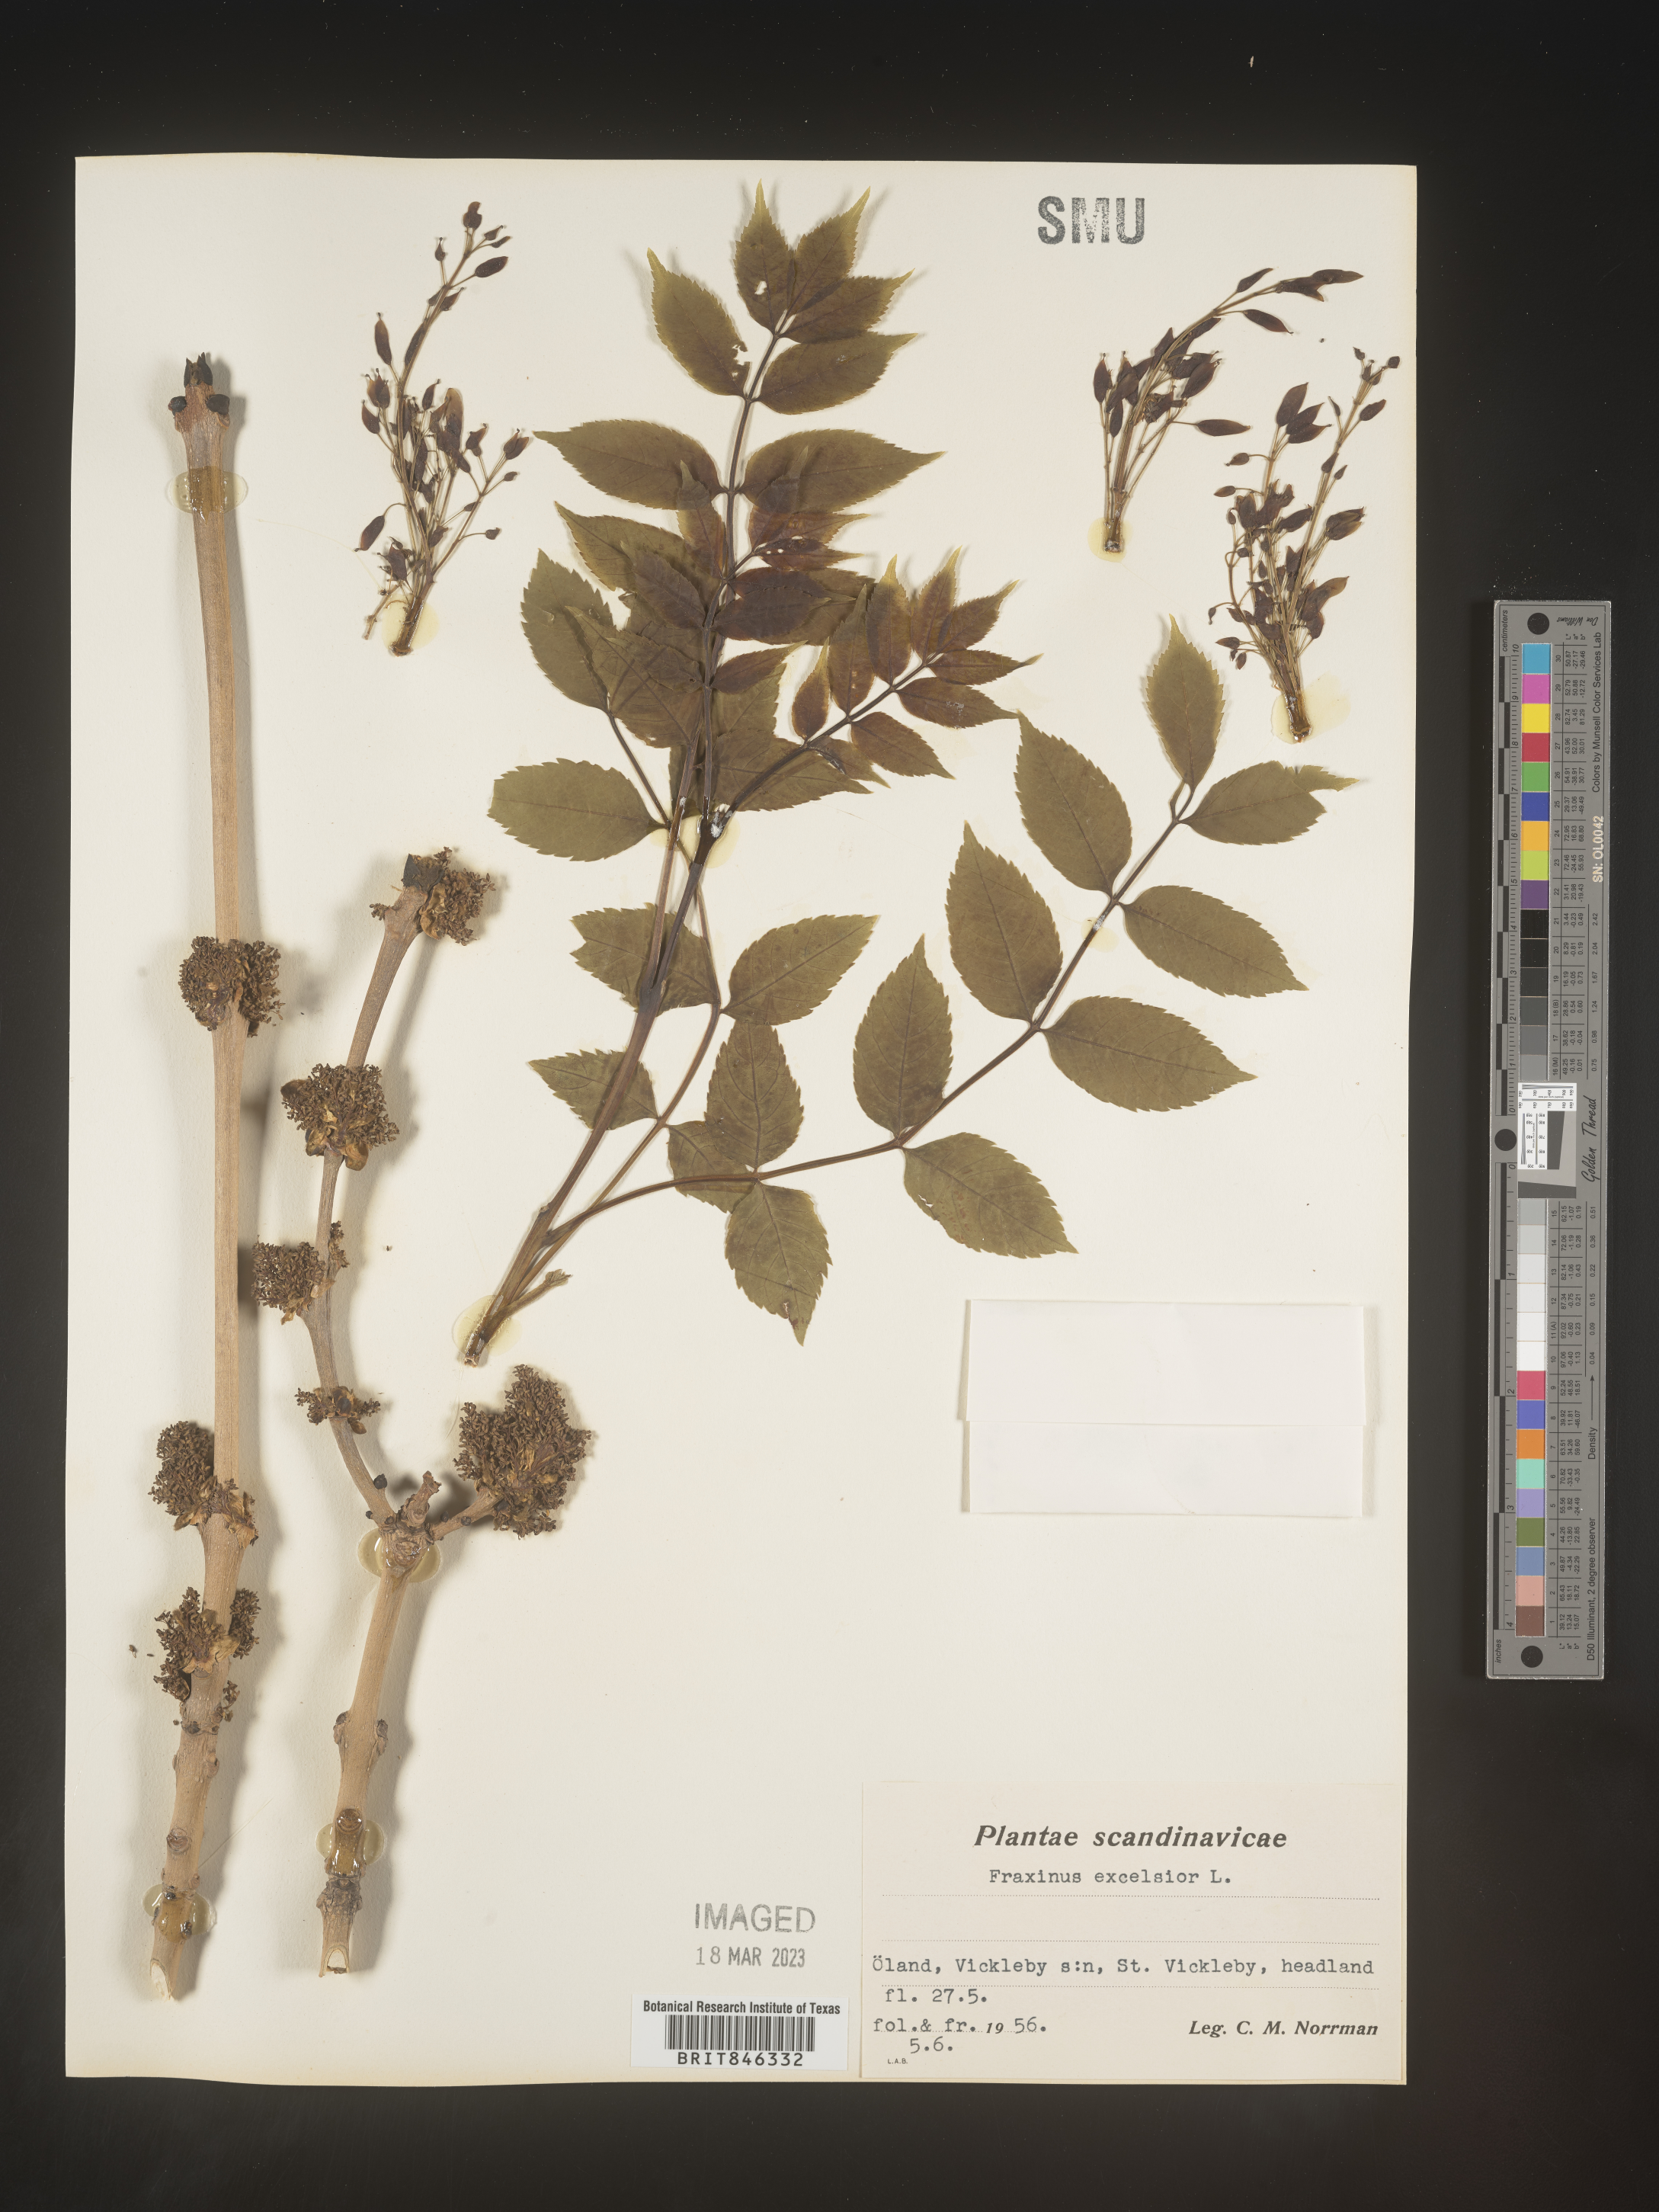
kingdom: Plantae
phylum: Tracheophyta
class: Magnoliopsida
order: Lamiales
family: Oleaceae
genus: Fraxinus
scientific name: Fraxinus
